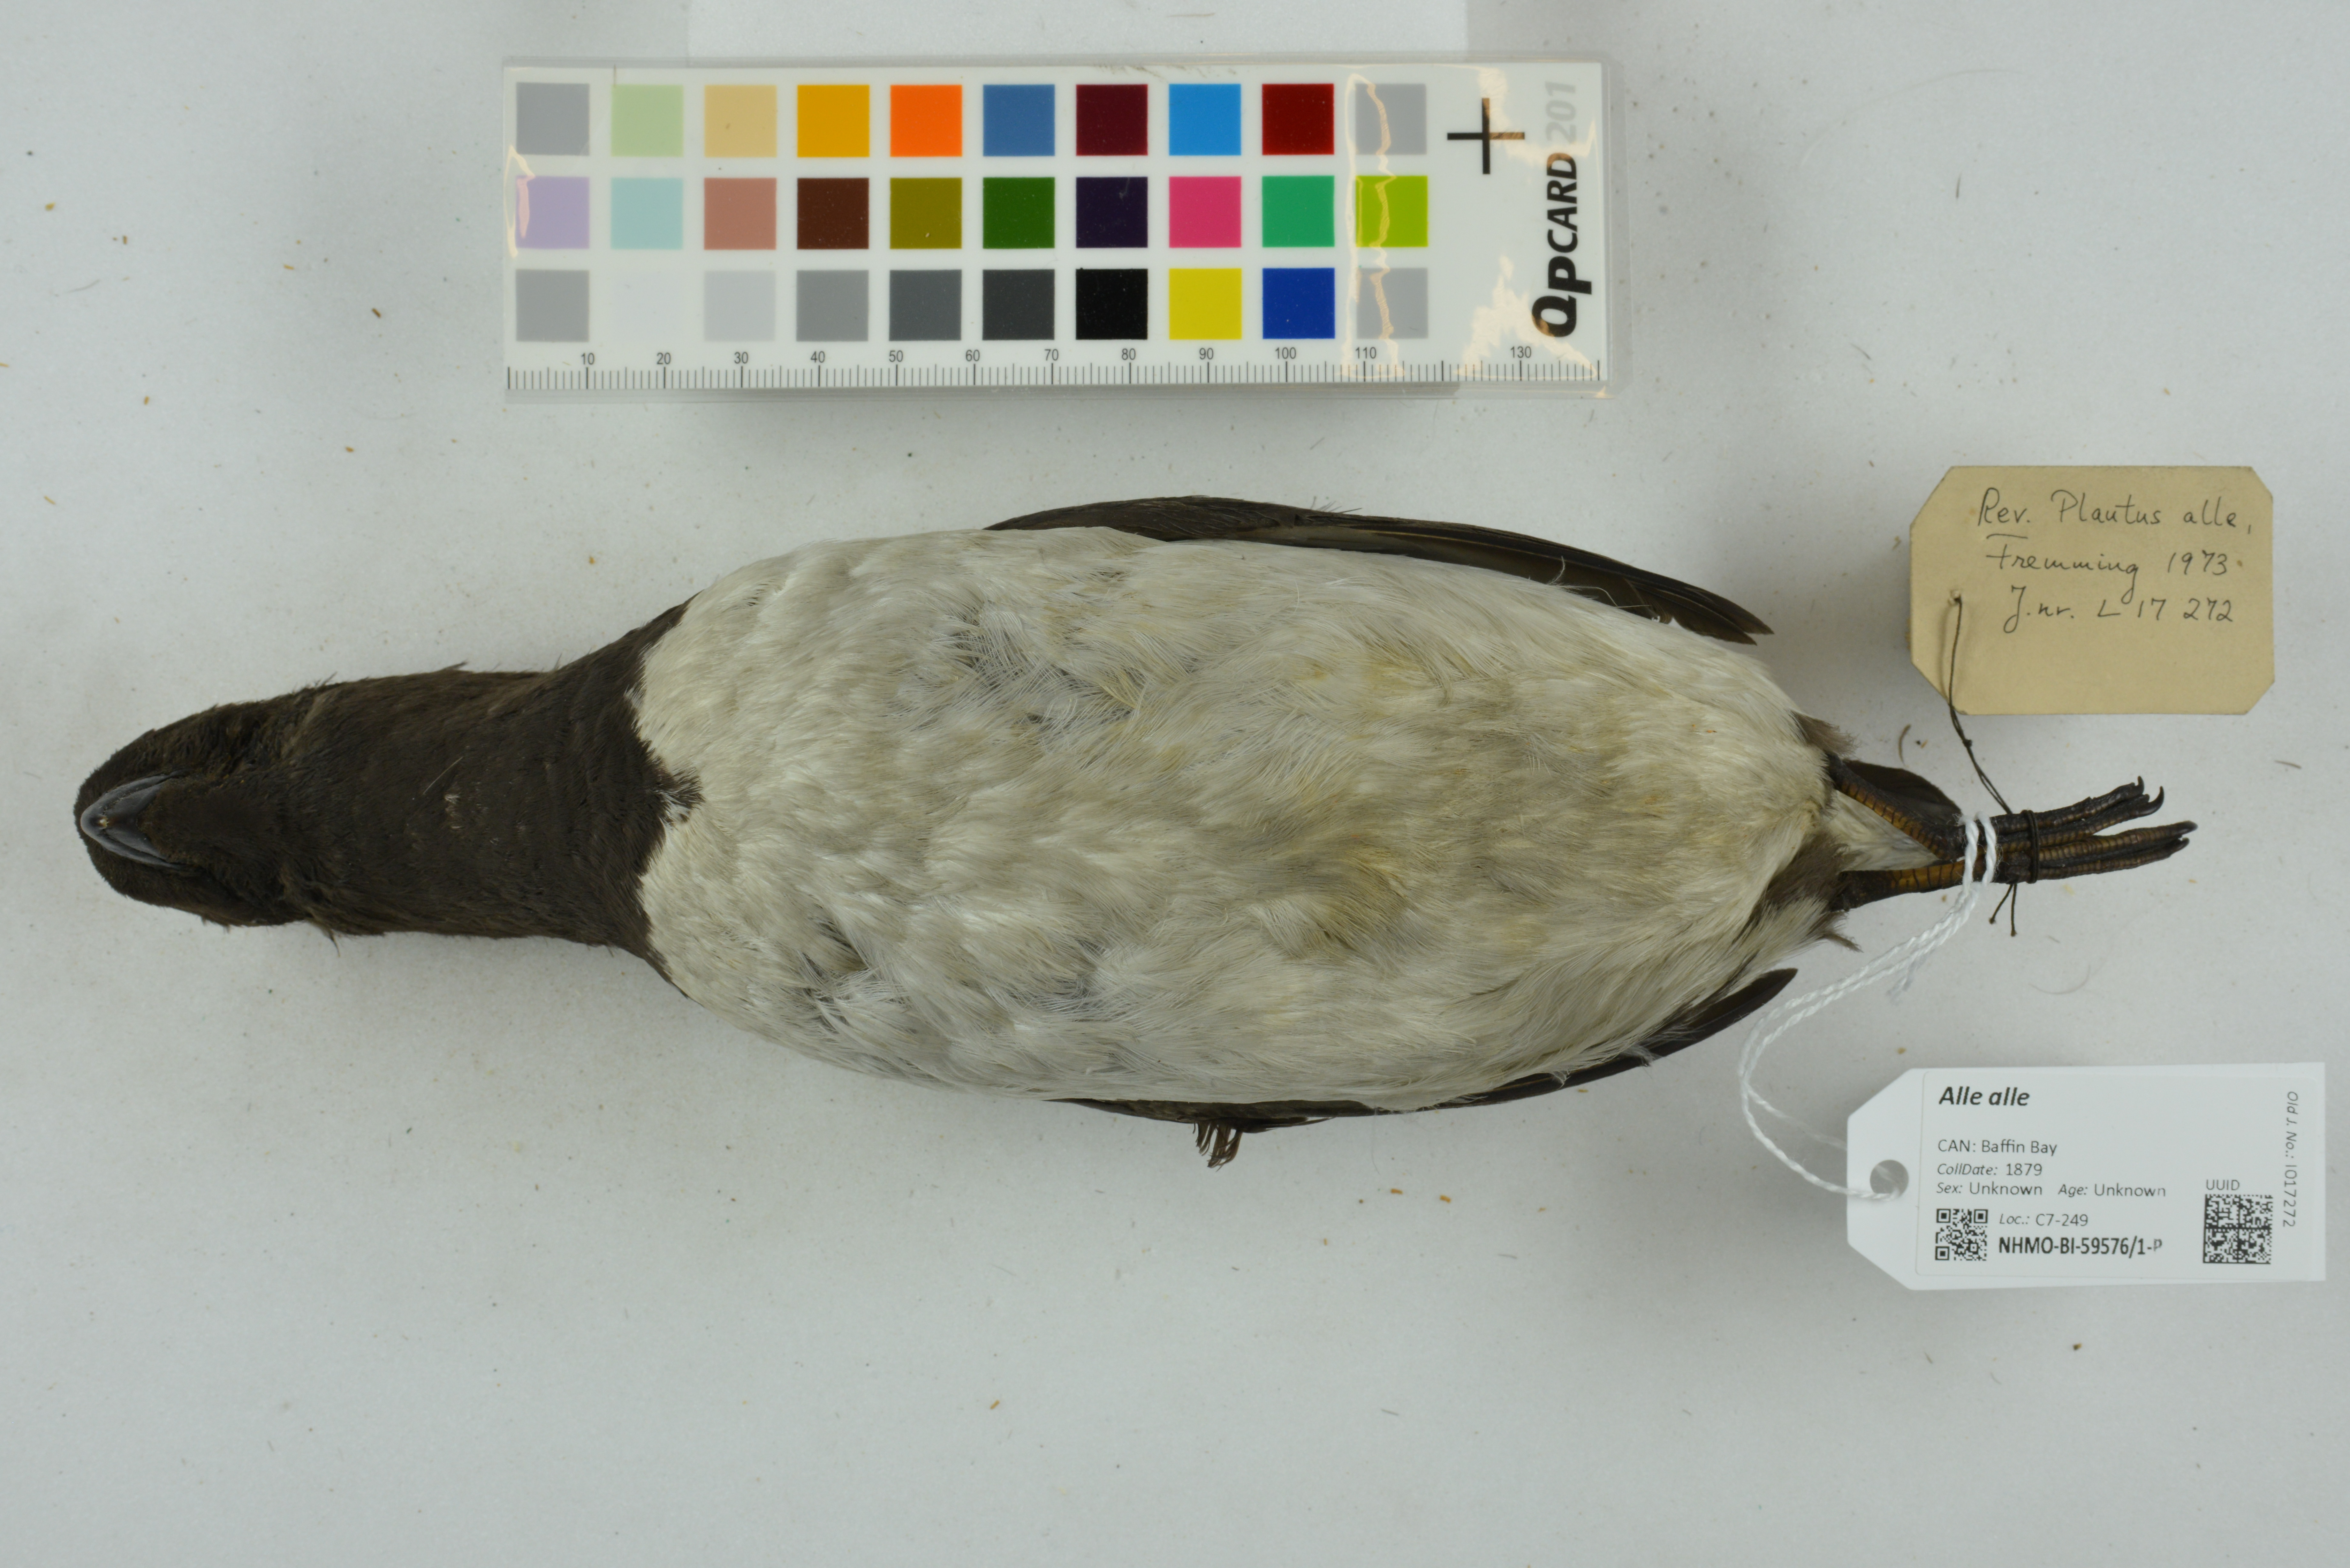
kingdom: Animalia
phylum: Chordata
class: Aves
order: Charadriiformes
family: Alcidae
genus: Alle
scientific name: Alle alle
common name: Little auk
